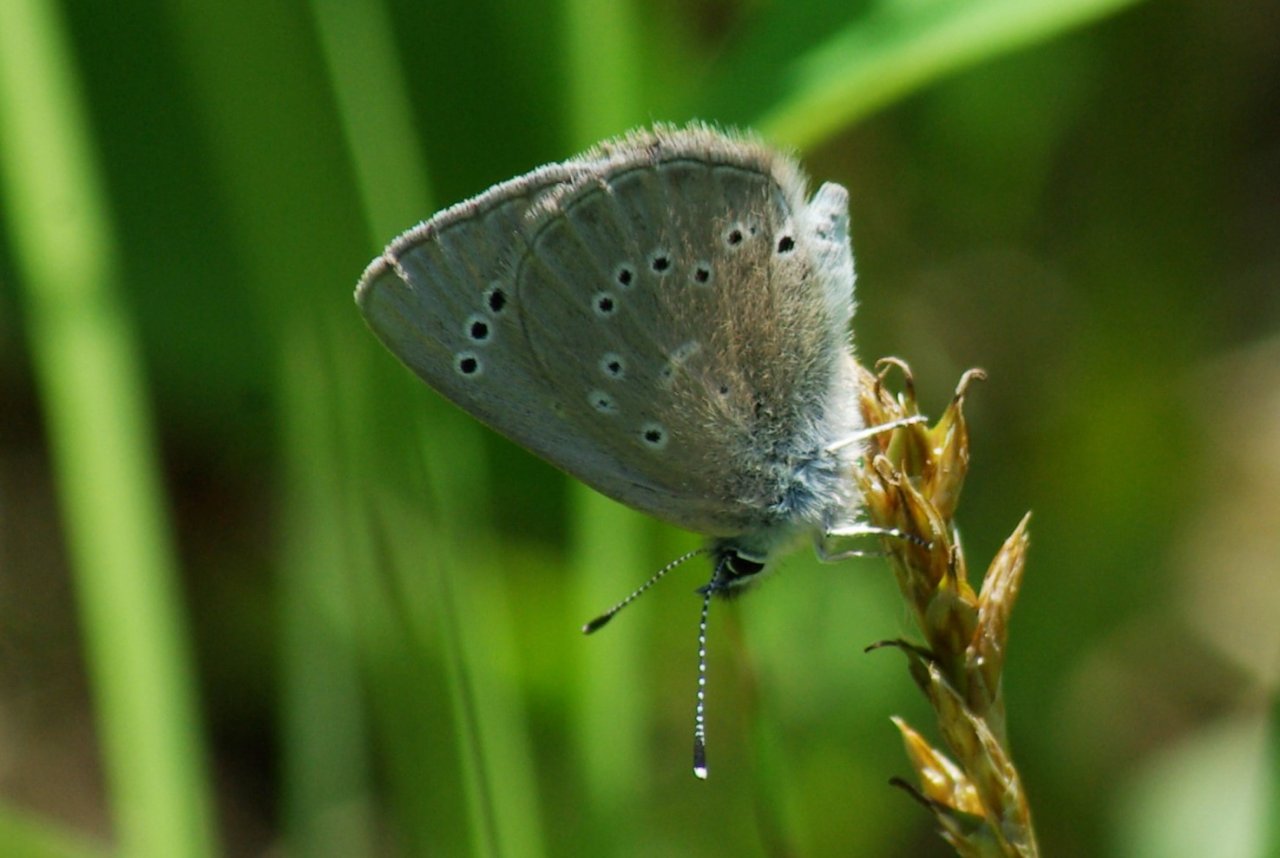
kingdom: Animalia
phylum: Arthropoda
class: Insecta
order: Lepidoptera
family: Lycaenidae
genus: Glaucopsyche
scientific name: Glaucopsyche lygdamus
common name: Silvery Blue
